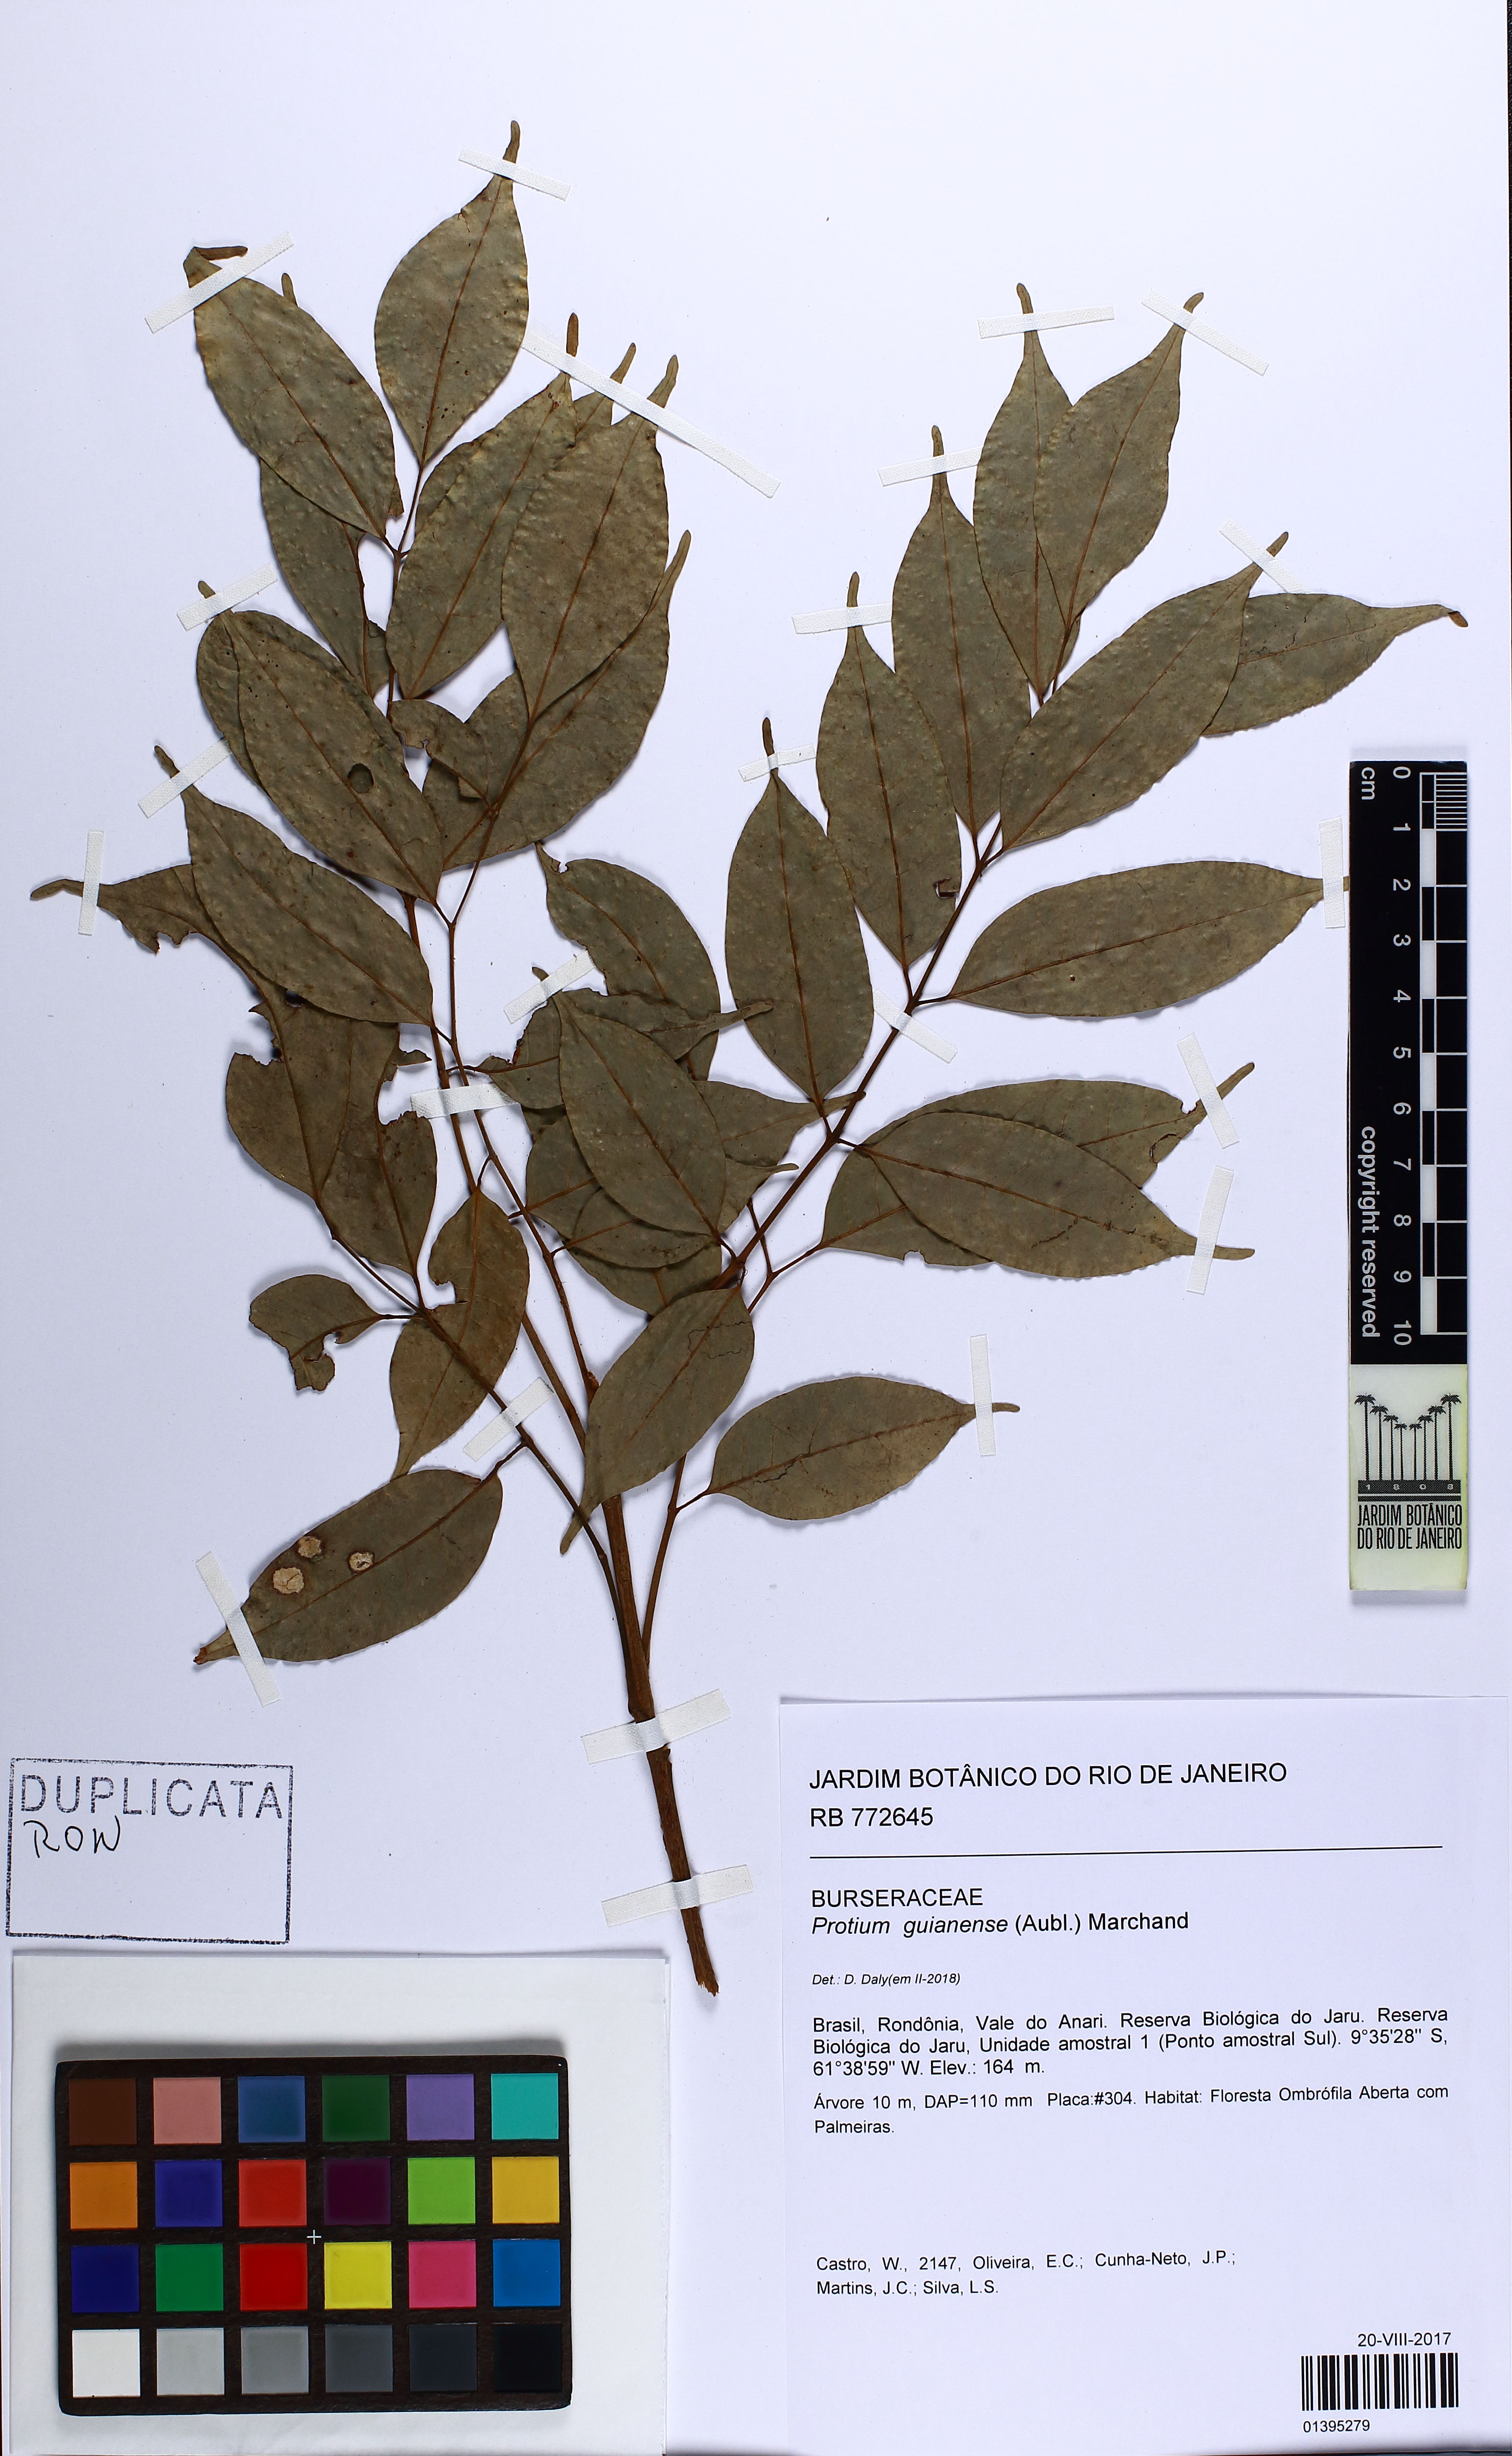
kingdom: Plantae
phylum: Tracheophyta
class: Magnoliopsida
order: Sapindales
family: Burseraceae
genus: Protium
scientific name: Protium guianense
